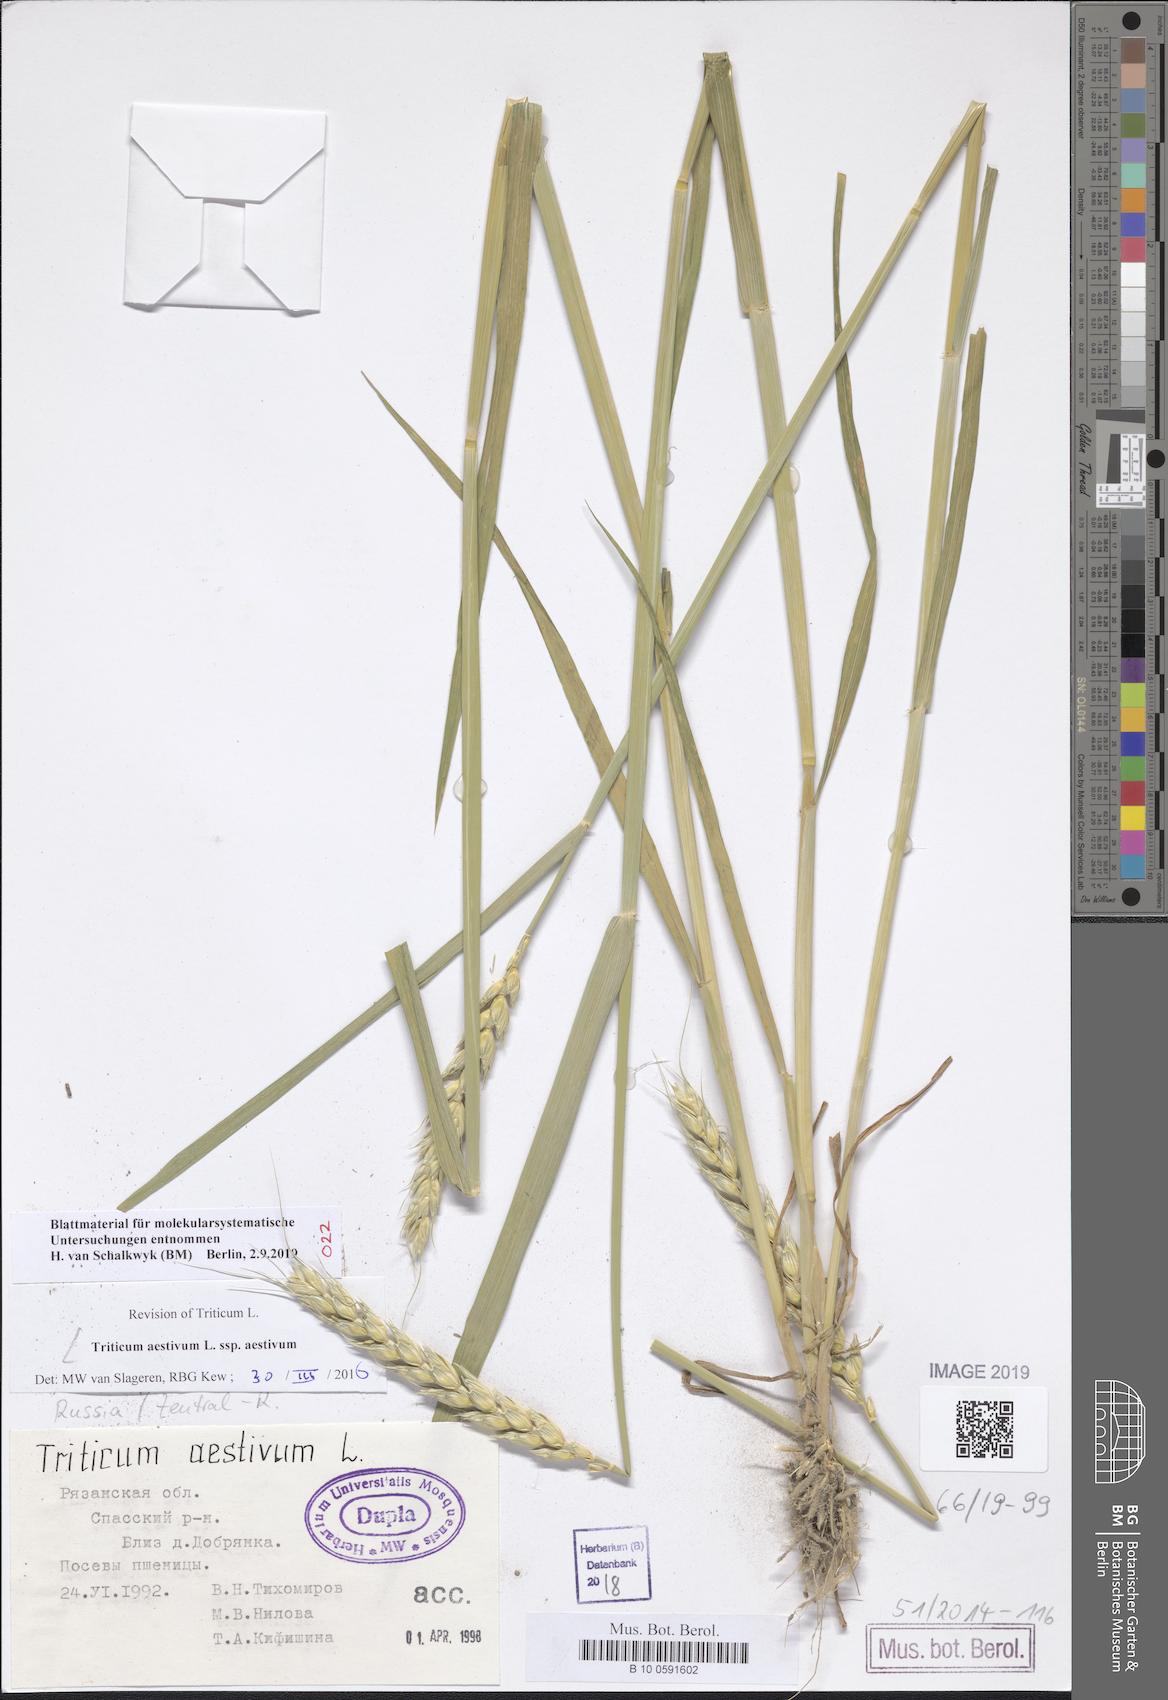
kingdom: Plantae
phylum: Tracheophyta
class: Liliopsida
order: Poales
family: Poaceae
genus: Triticum
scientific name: Triticum aestivum
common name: Common wheat
